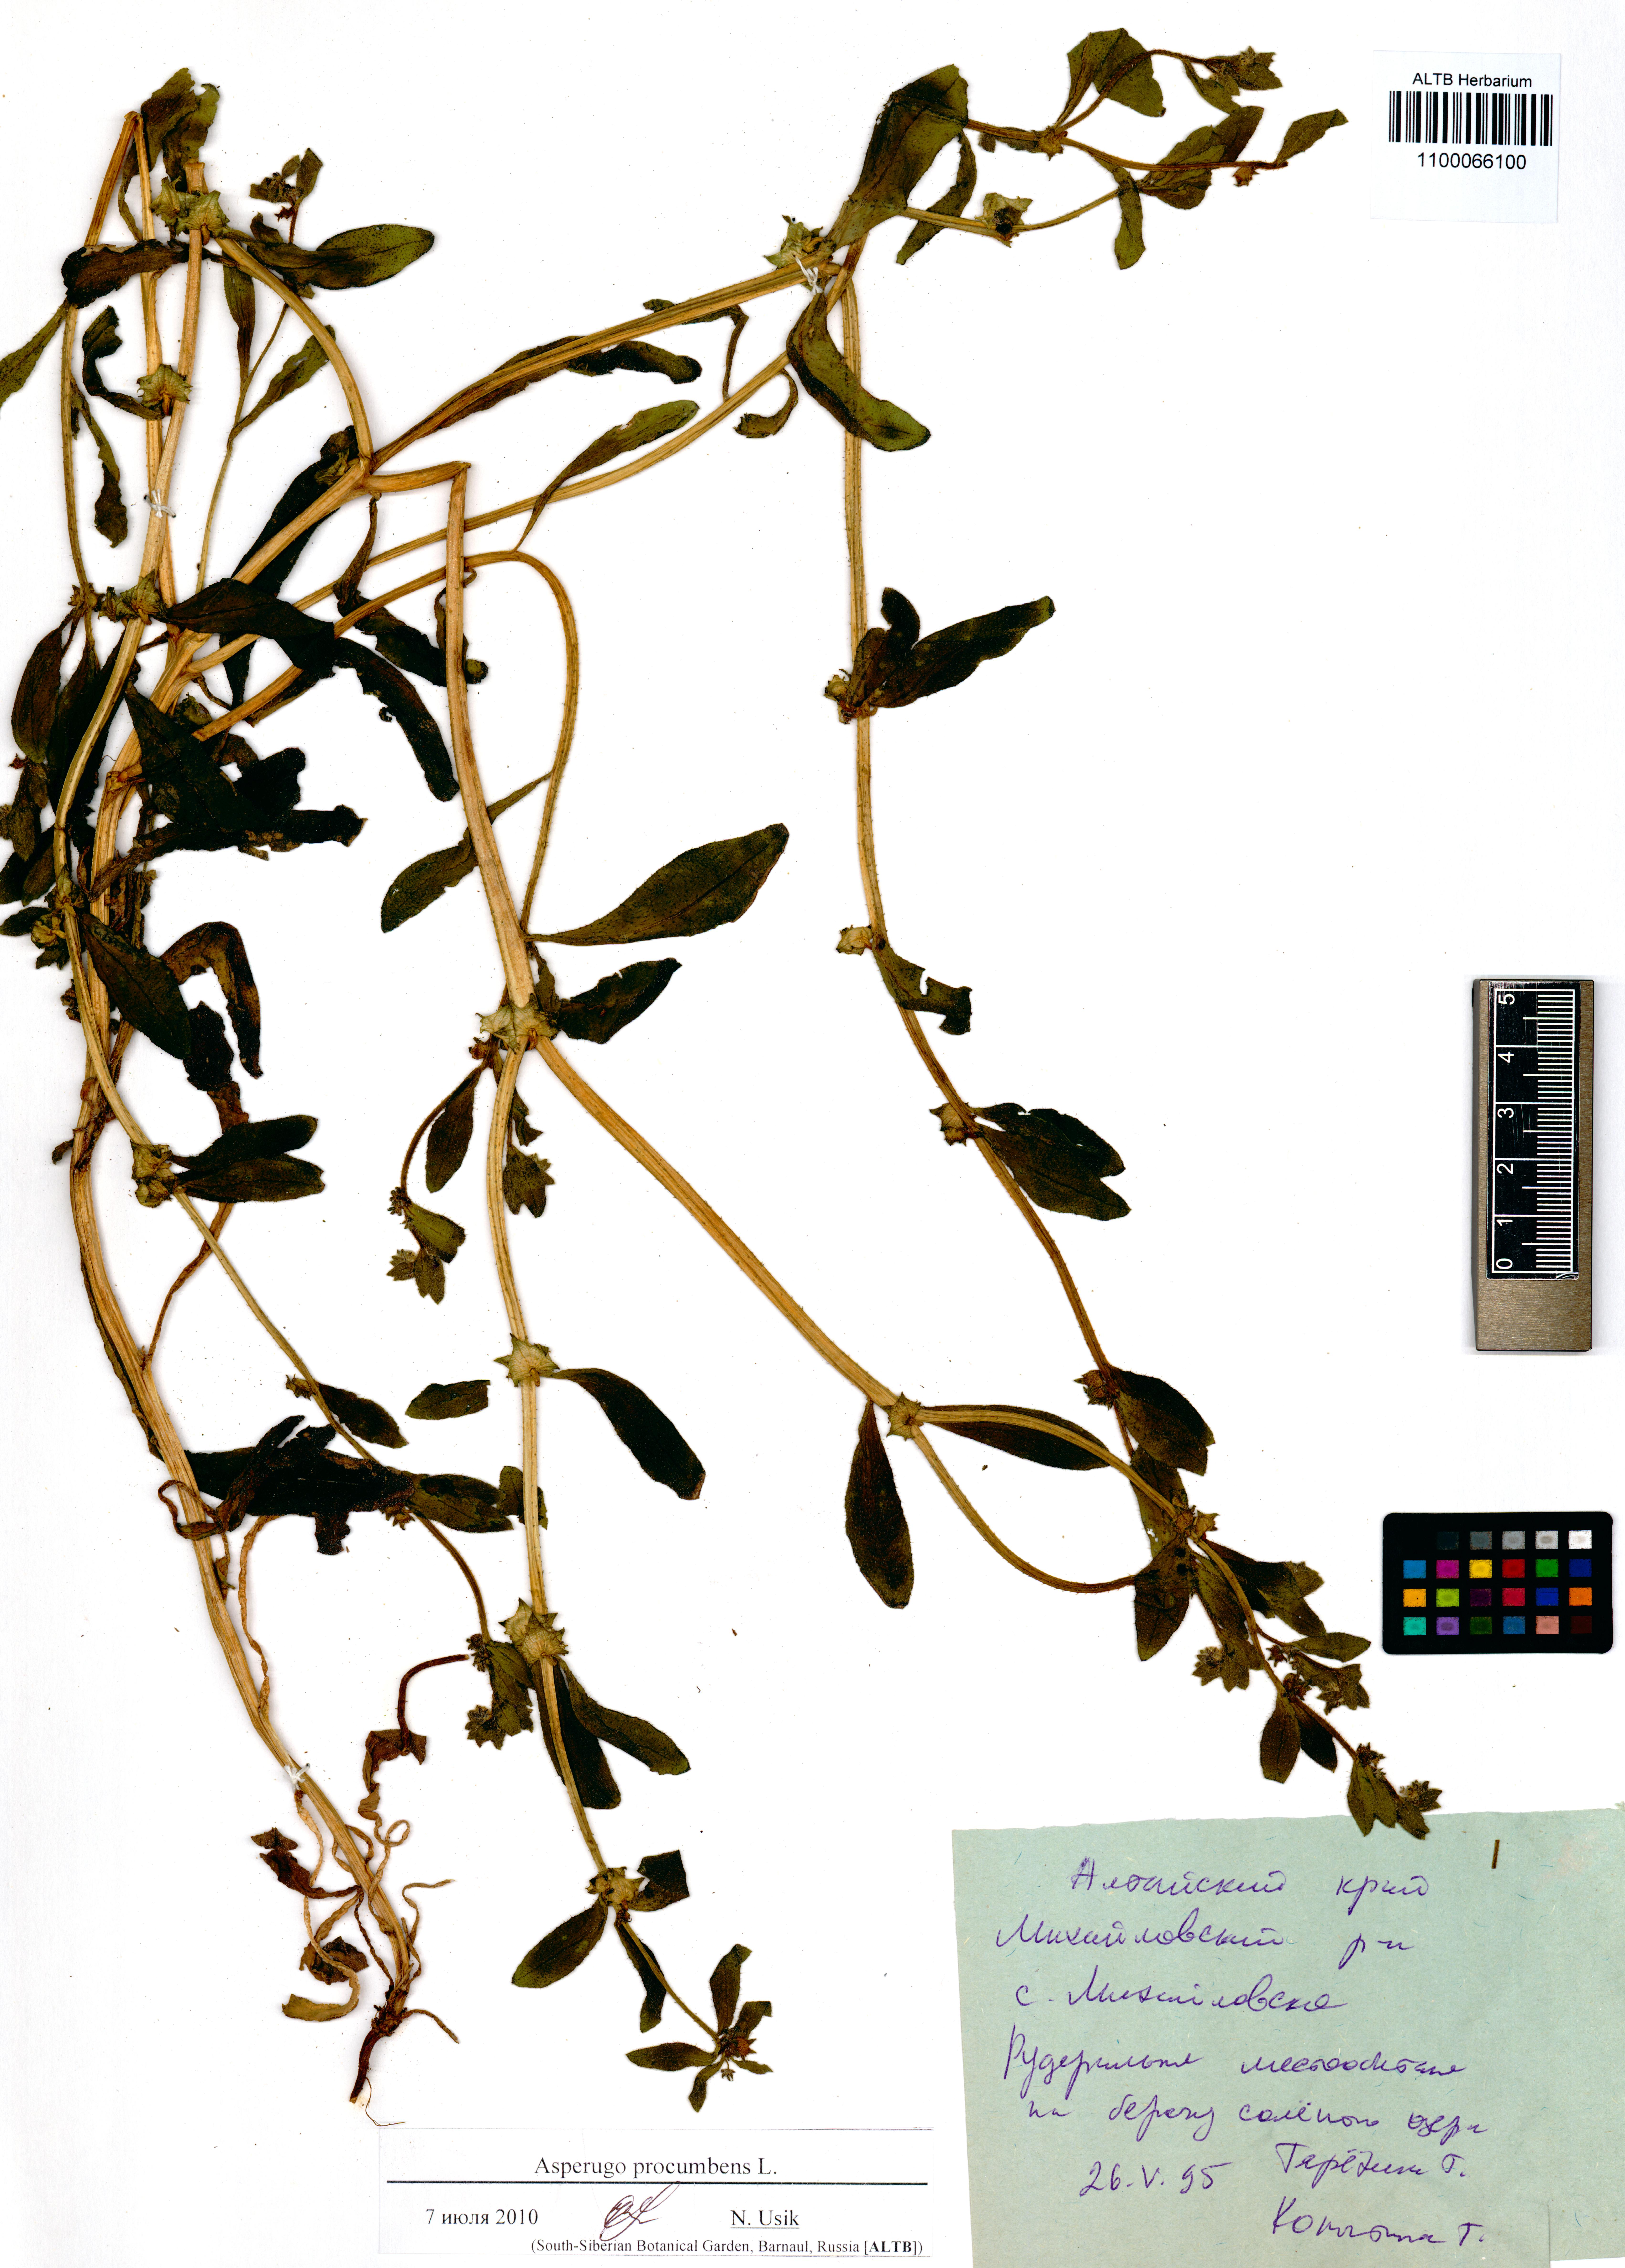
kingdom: Plantae
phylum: Tracheophyta
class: Magnoliopsida
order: Boraginales
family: Boraginaceae
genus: Asperugo
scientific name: Asperugo procumbens
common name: Madwort
